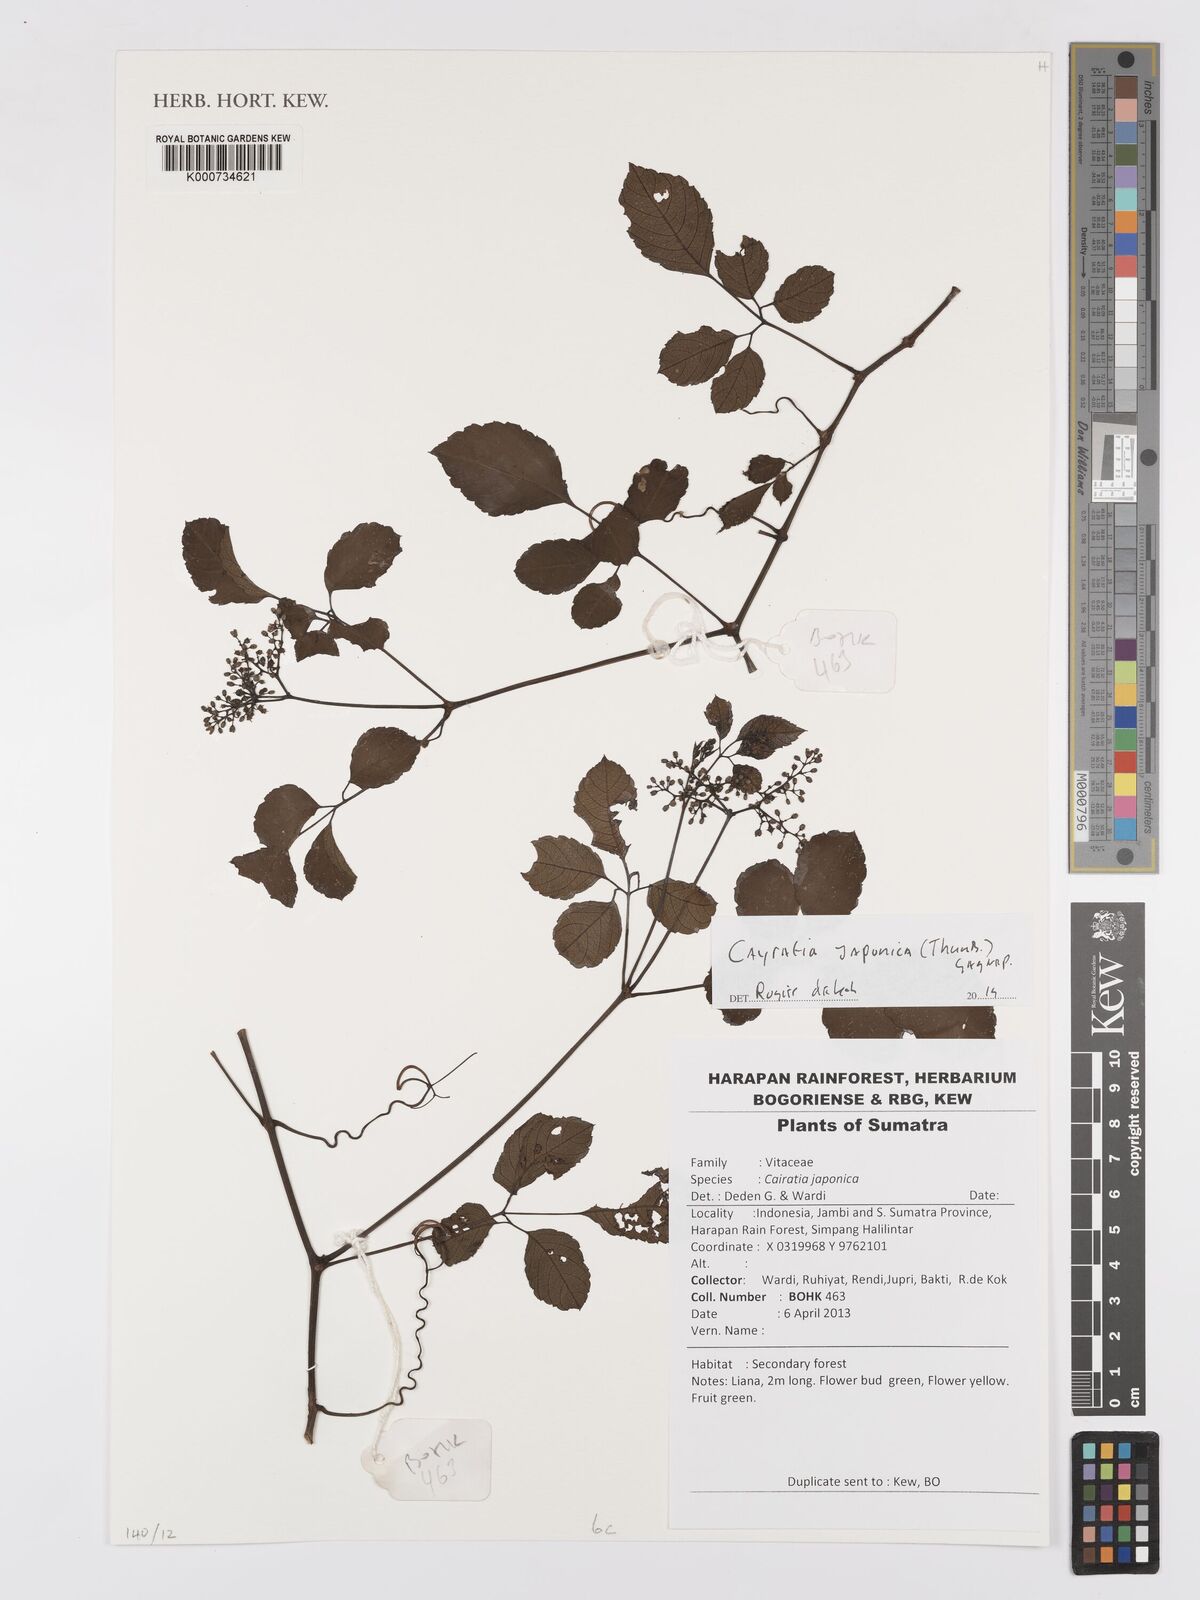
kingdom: Plantae
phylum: Tracheophyta
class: Magnoliopsida
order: Vitales
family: Vitaceae
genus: Causonis
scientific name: Causonis japonica
